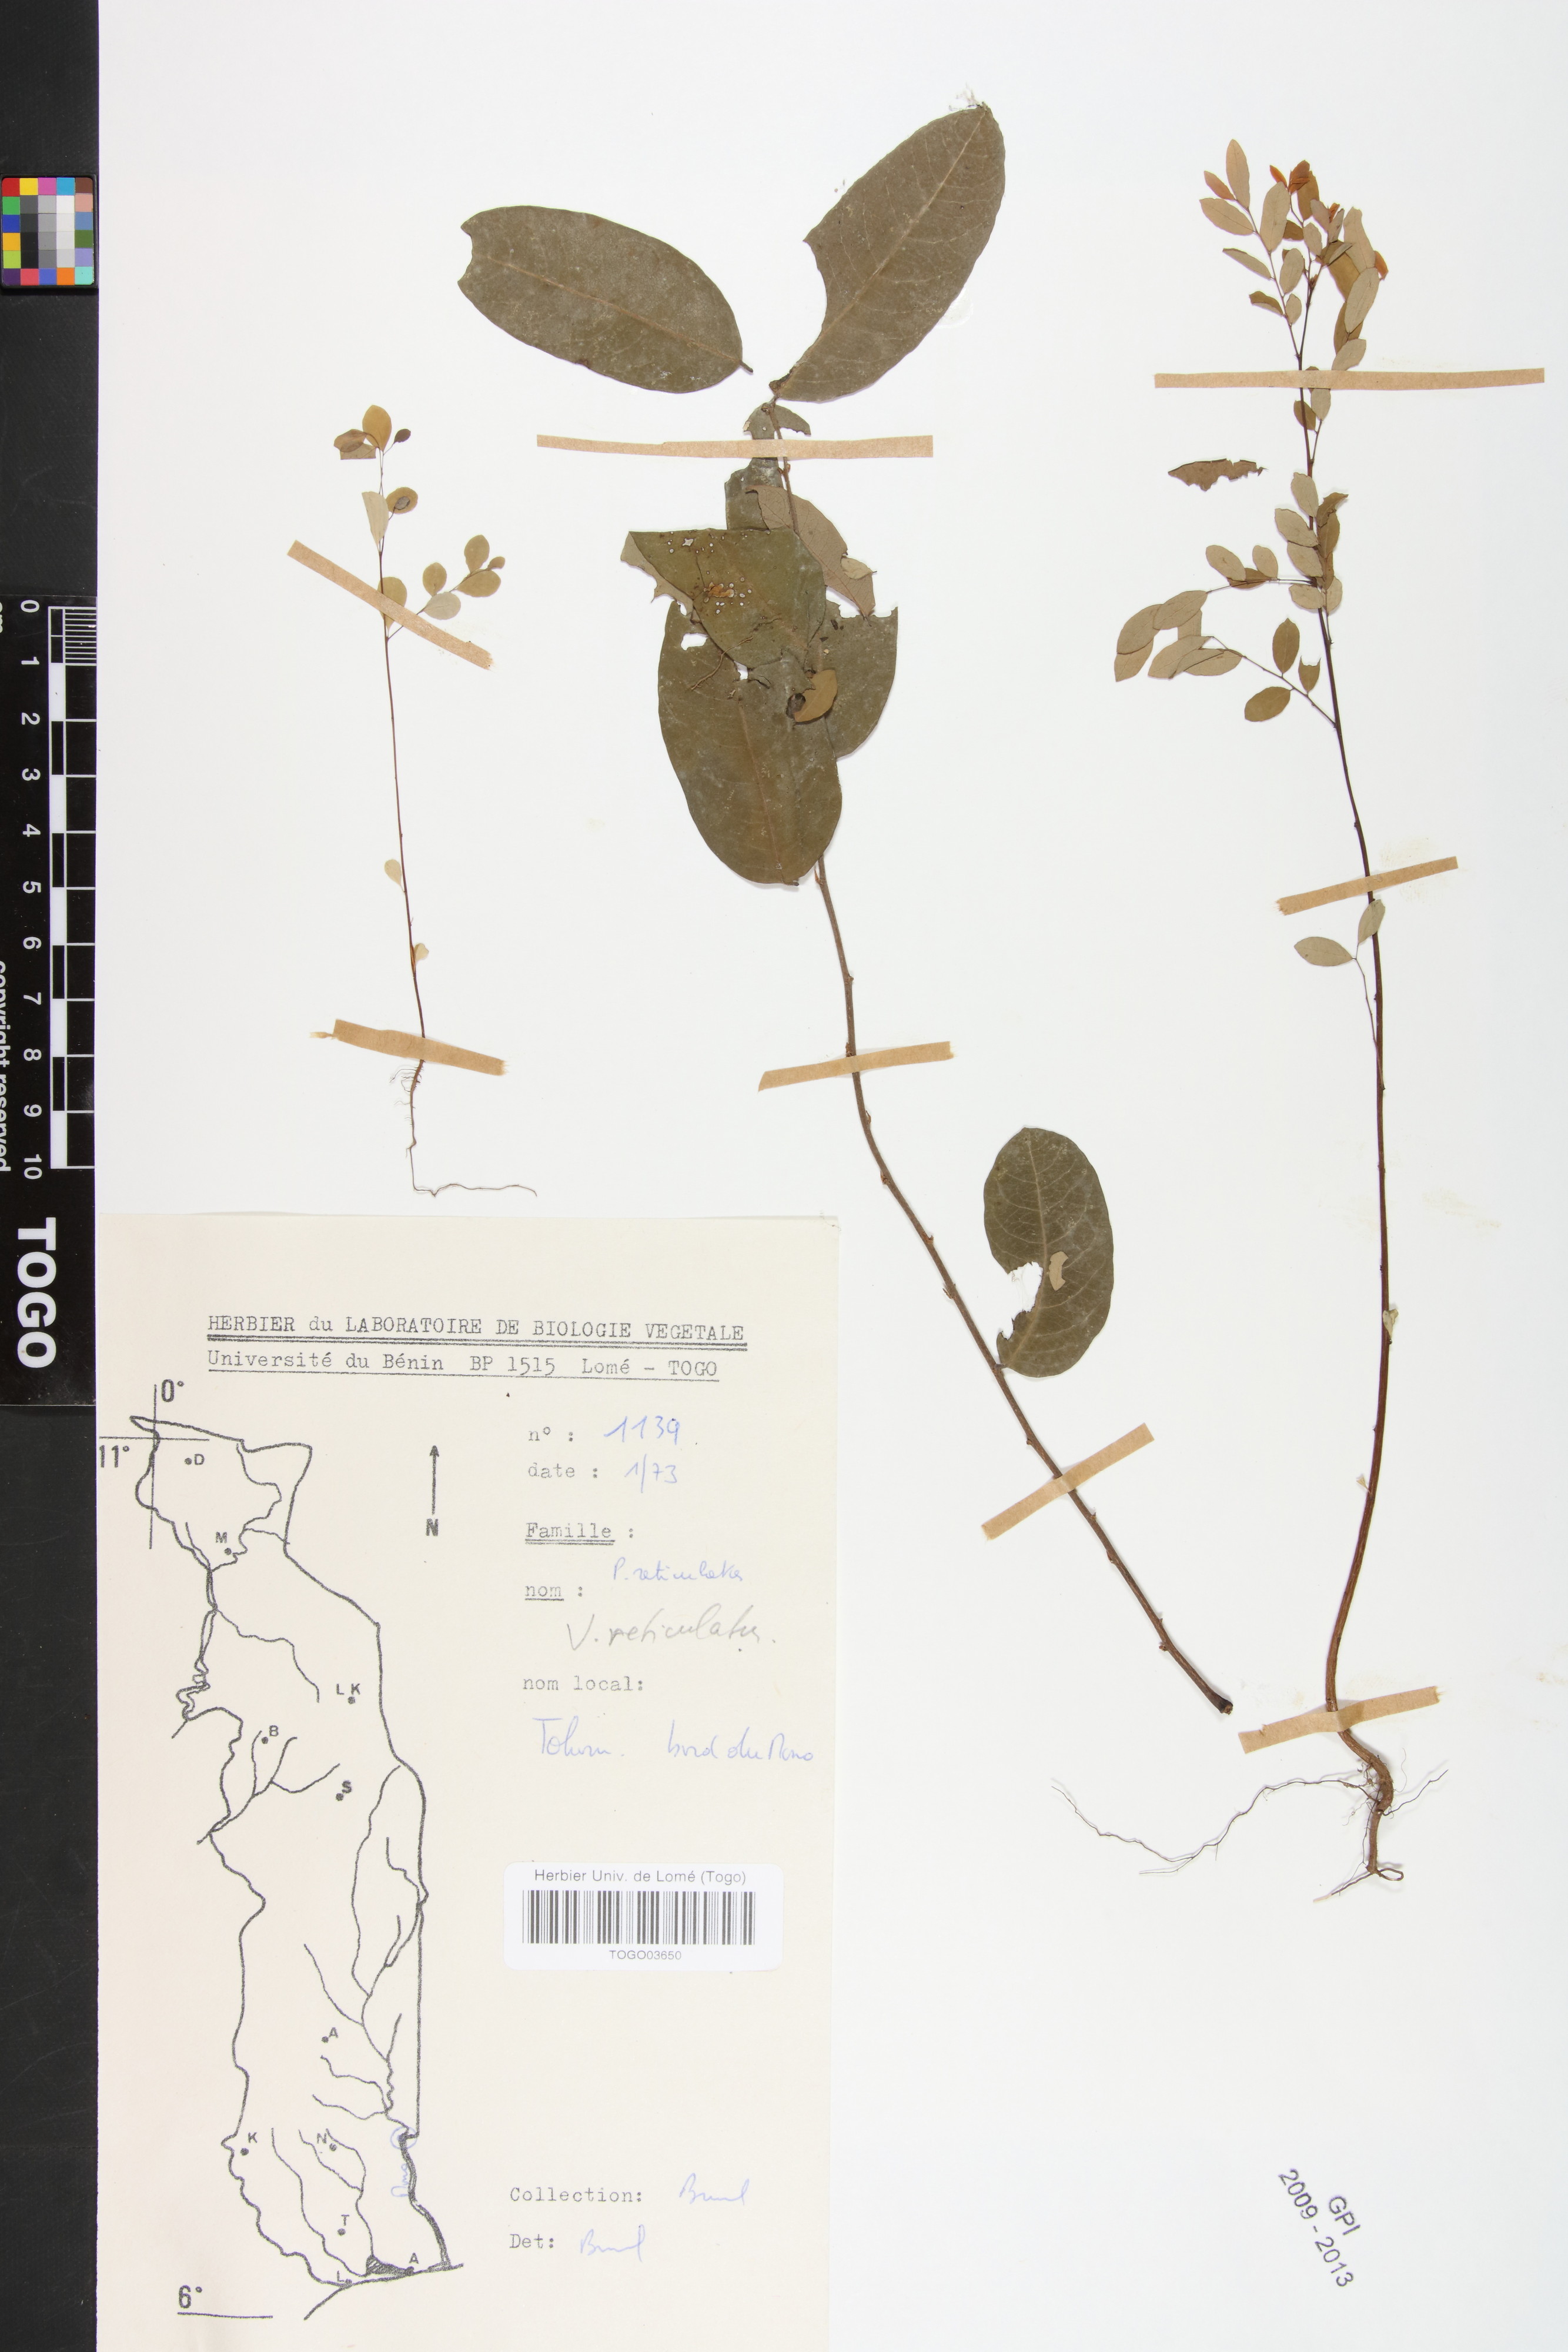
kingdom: Plantae
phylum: Tracheophyta
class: Magnoliopsida
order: Malpighiales
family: Phyllanthaceae
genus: Phyllanthus
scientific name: Phyllanthus reticulatus
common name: Potato bush
